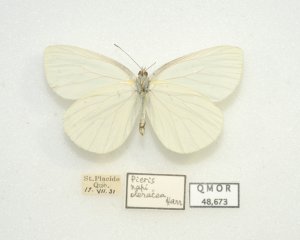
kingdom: Animalia
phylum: Arthropoda
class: Insecta
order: Lepidoptera
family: Pieridae
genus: Pieris
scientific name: Pieris oleracea
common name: Mustard White
